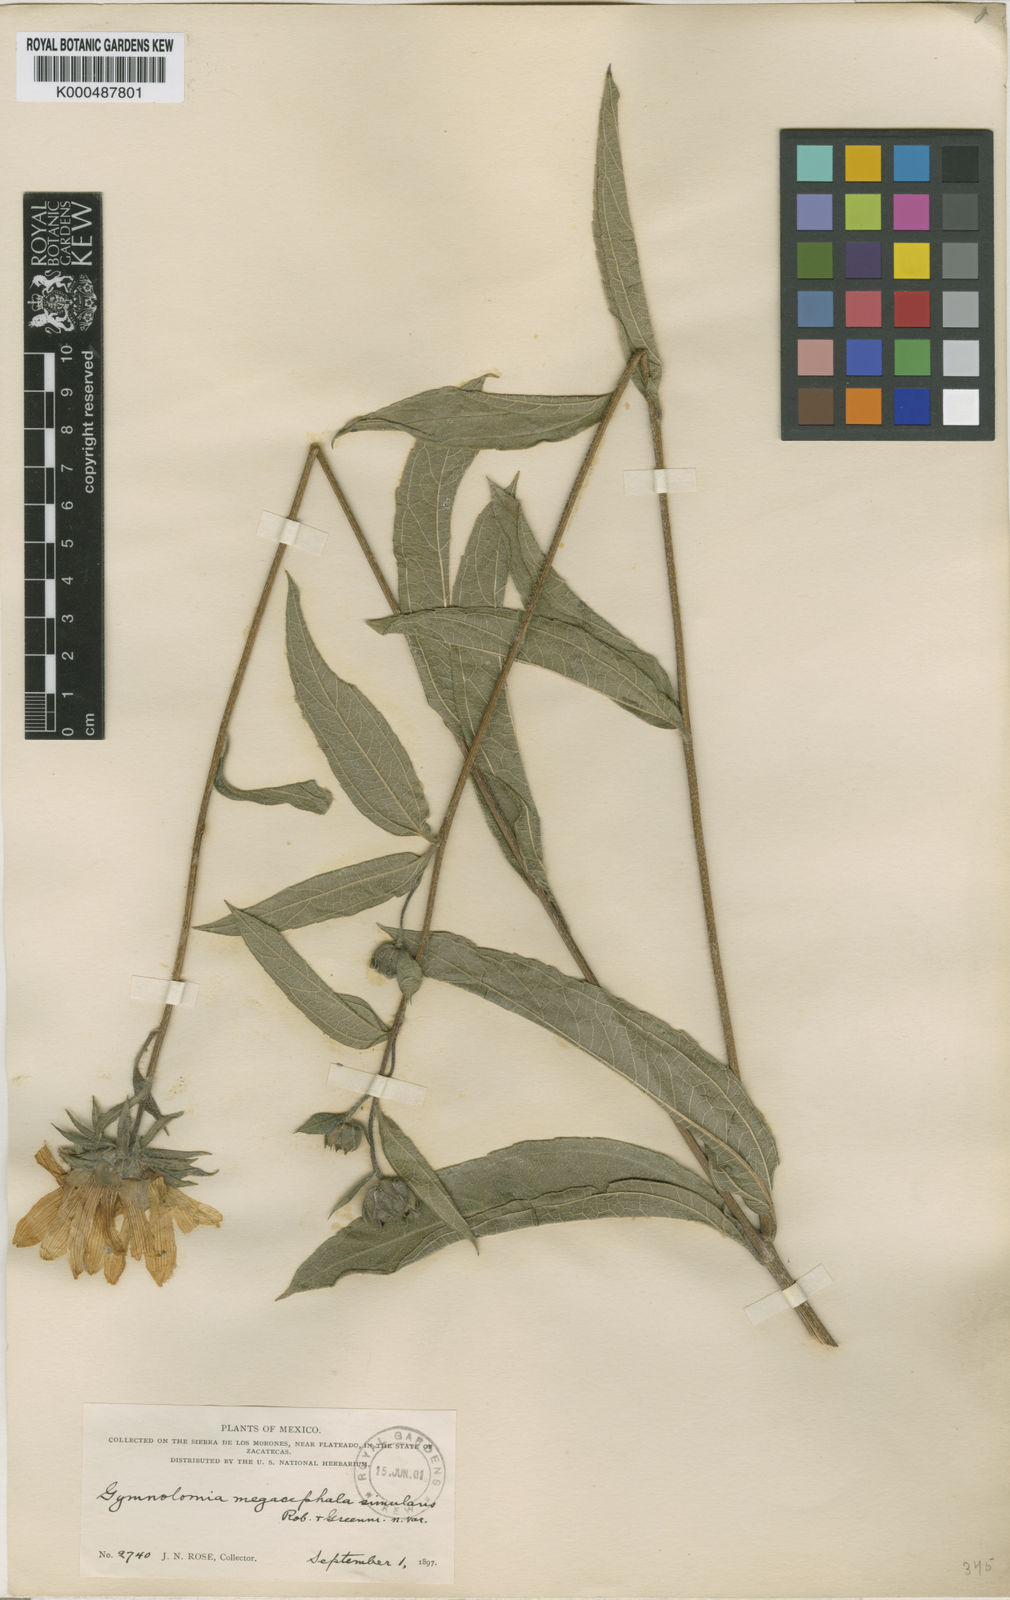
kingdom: Plantae
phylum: Tracheophyta
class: Magnoliopsida
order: Asterales
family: Asteraceae
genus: Aldama
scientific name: Aldama pachycephala
